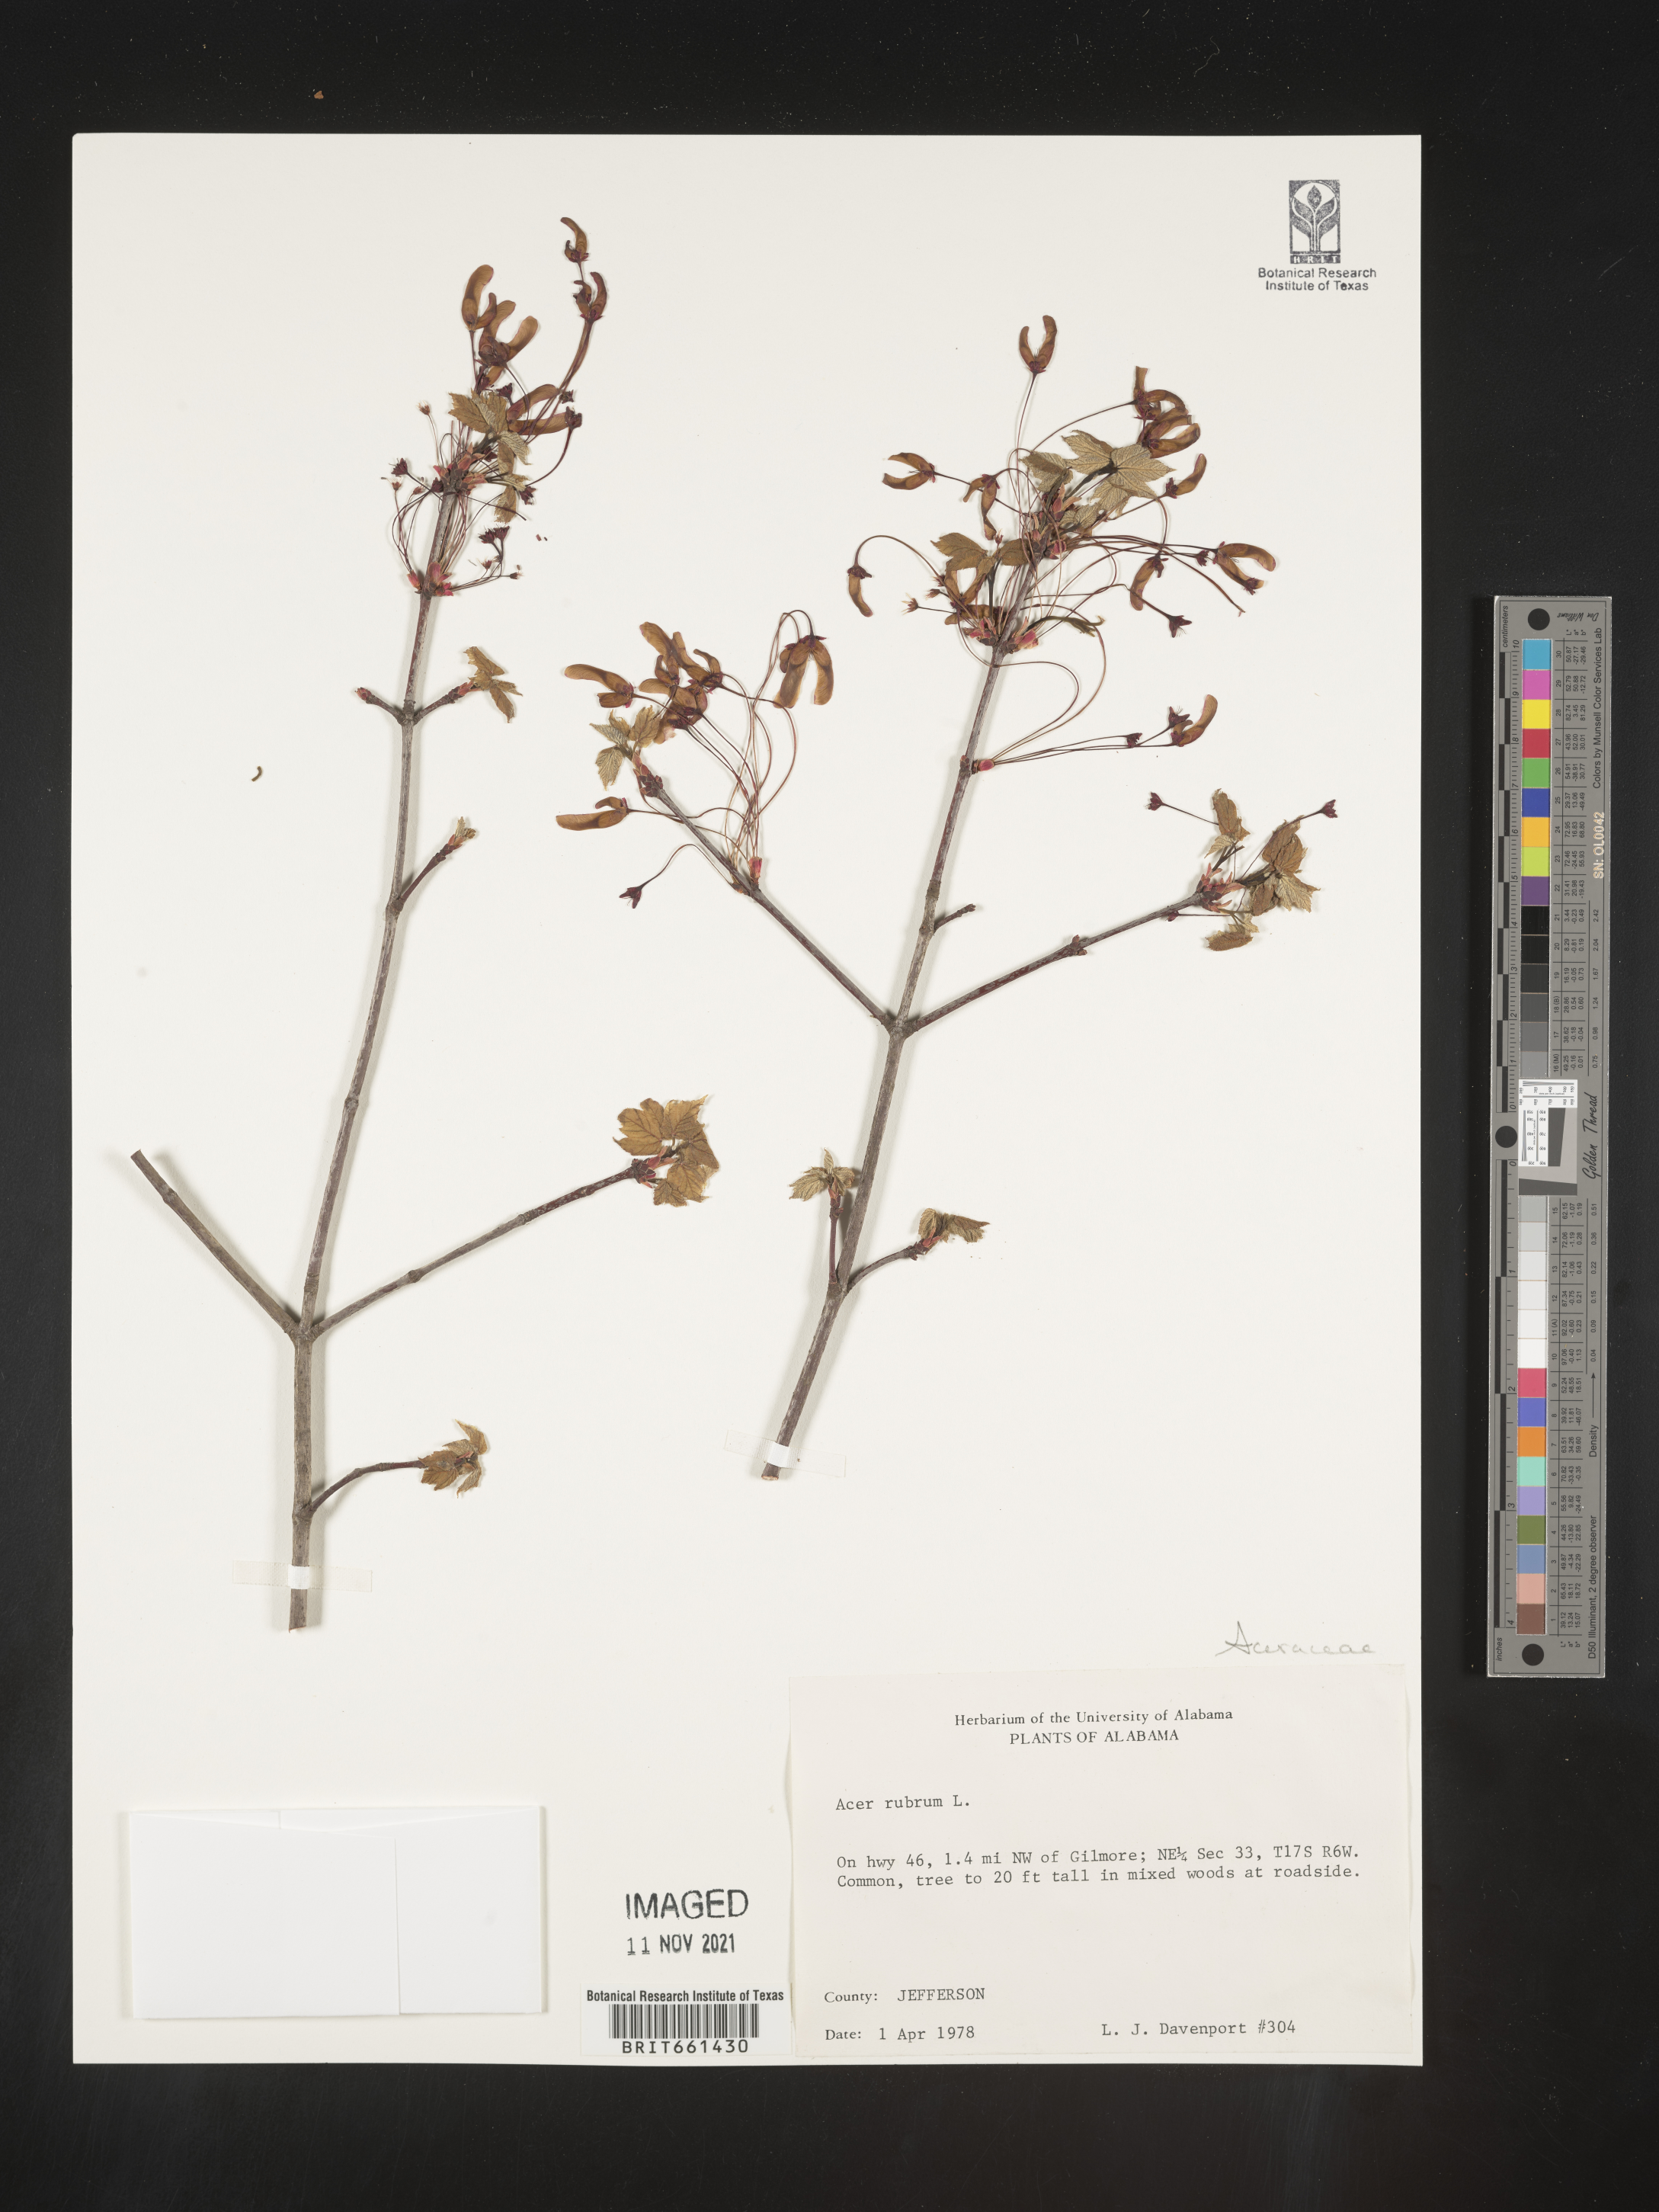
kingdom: Plantae
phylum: Tracheophyta
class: Magnoliopsida
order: Sapindales
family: Sapindaceae
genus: Acer
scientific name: Acer rubrum
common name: Red maple
